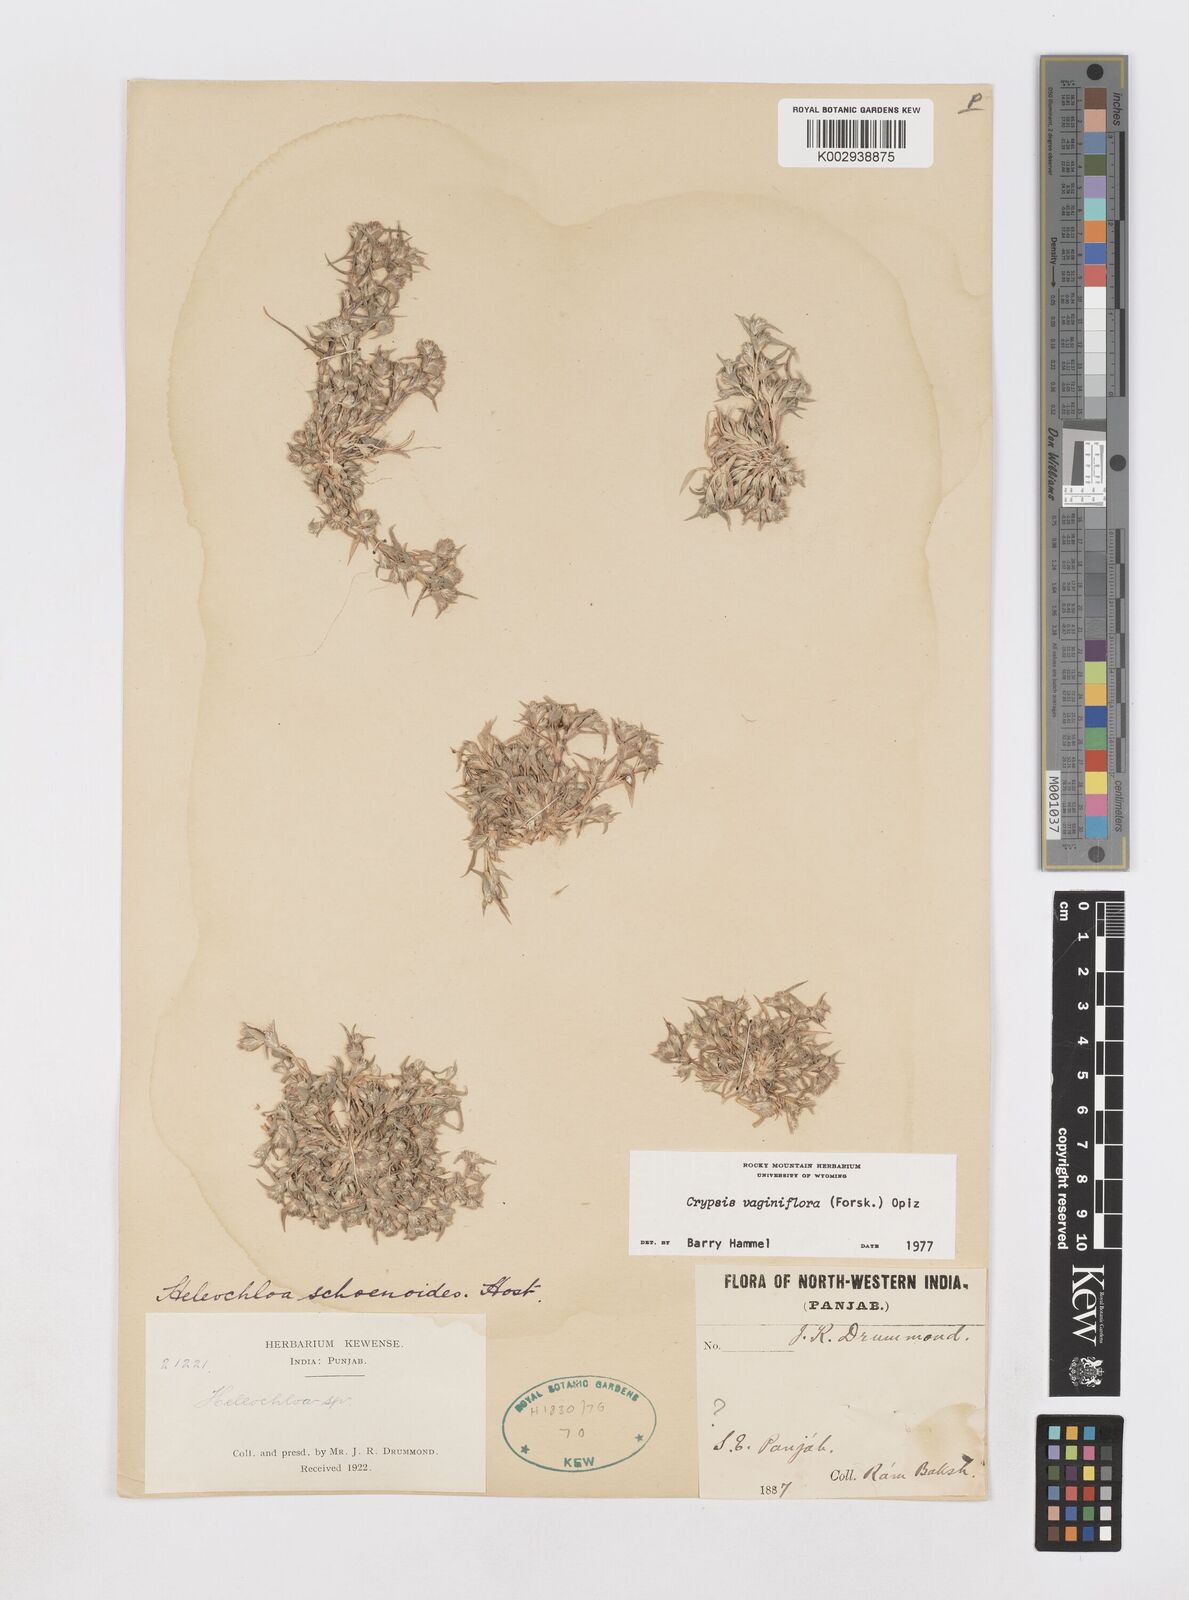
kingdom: Plantae
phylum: Tracheophyta
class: Liliopsida
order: Poales
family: Poaceae
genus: Sporobolus
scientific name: Sporobolus niliacus
